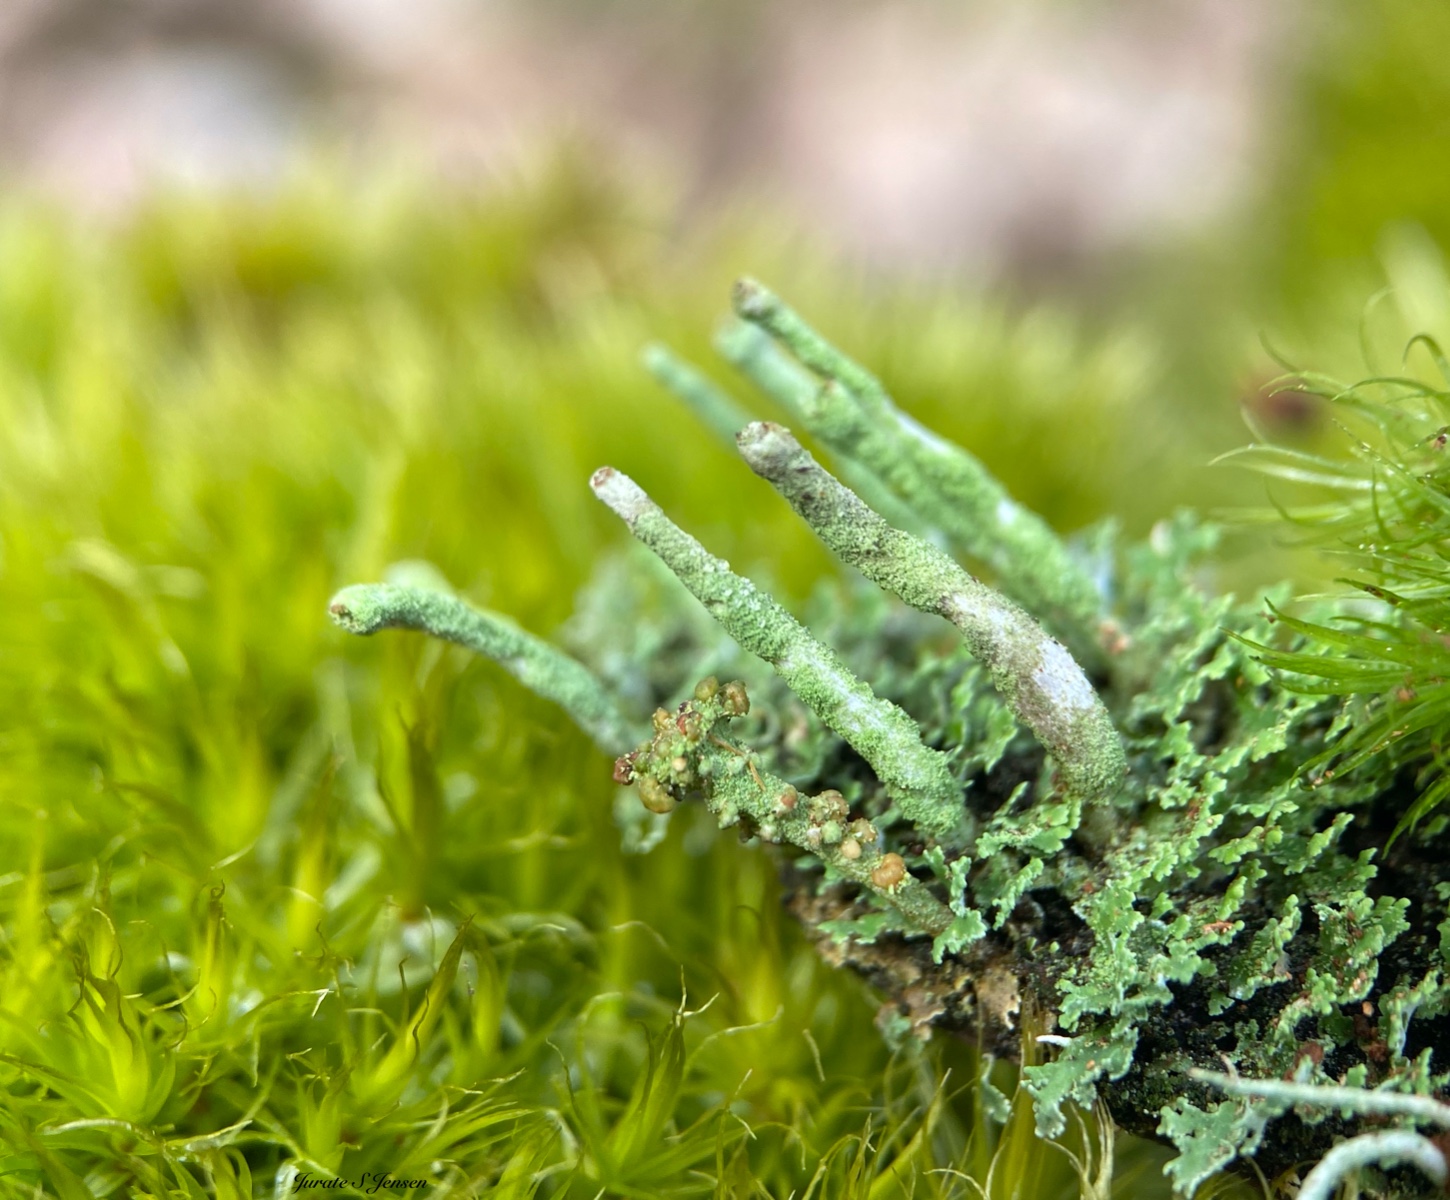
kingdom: Fungi
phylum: Ascomycota
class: Lecanoromycetes
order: Lecanorales
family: Cladoniaceae
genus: Cladonia
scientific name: Cladonia ochrochlora
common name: stød-bægerlav
